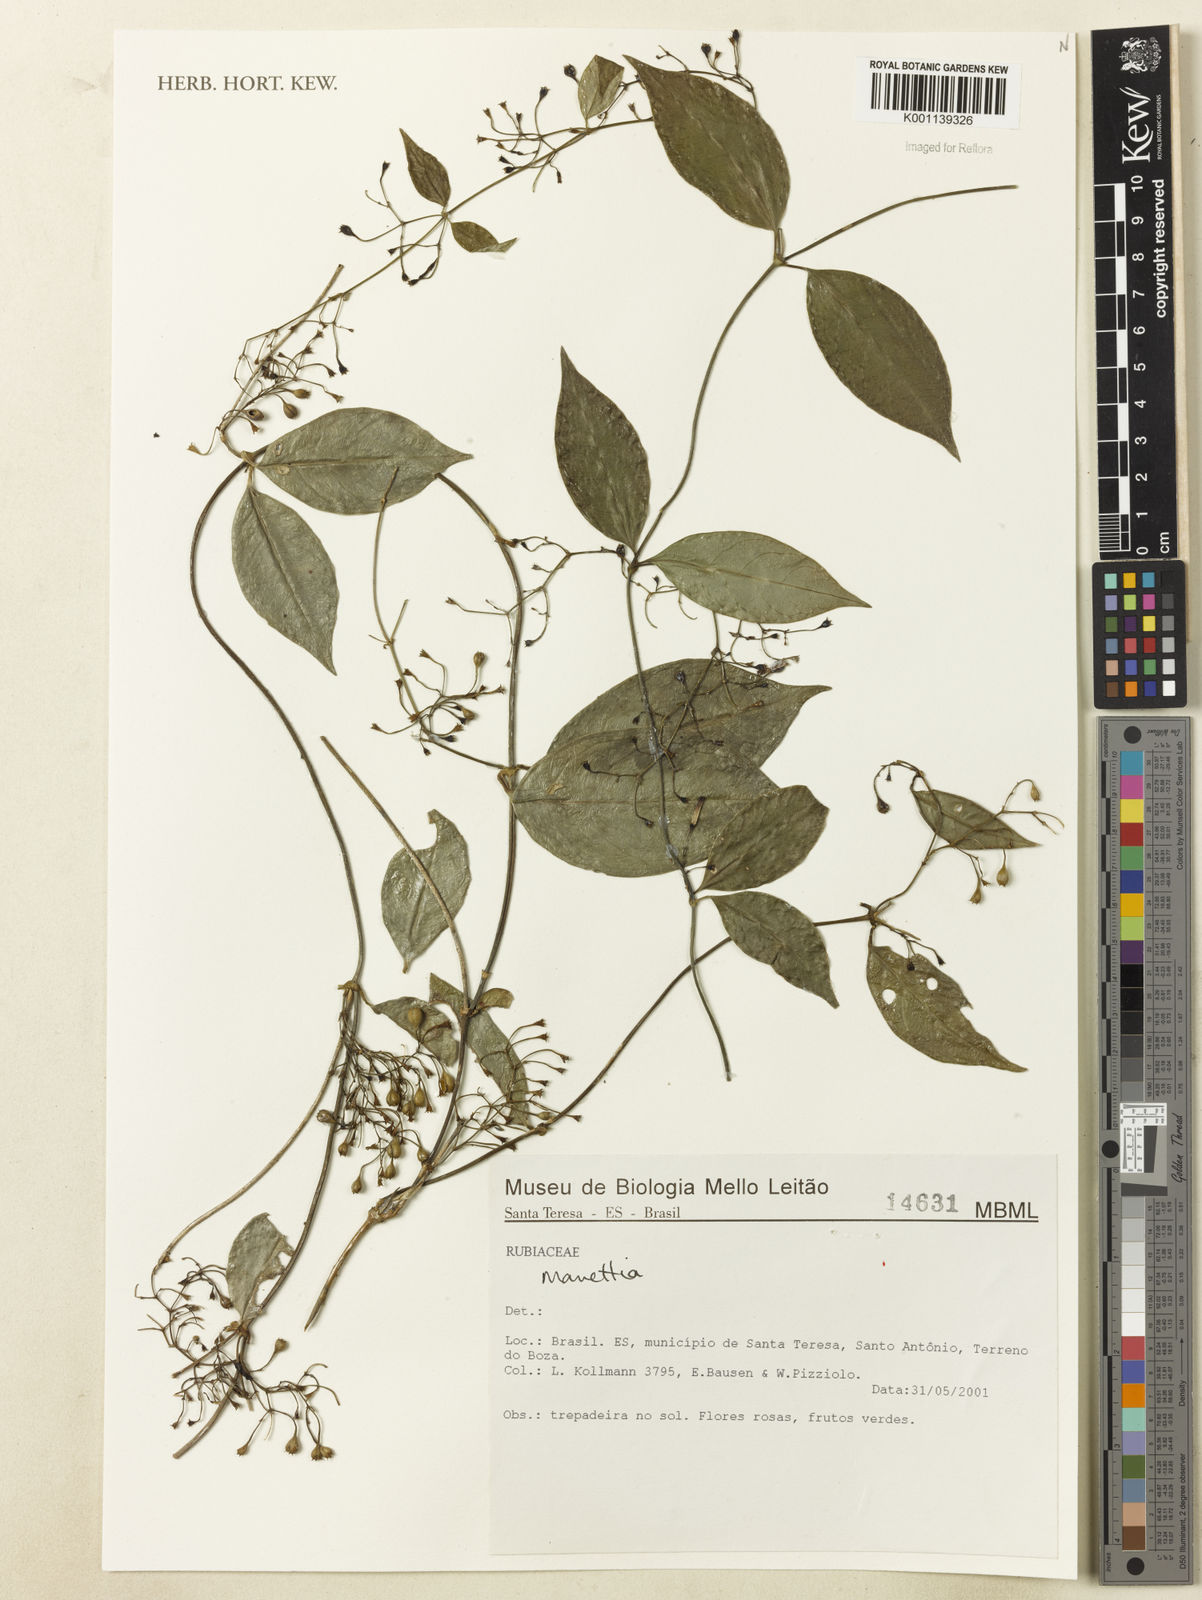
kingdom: Plantae
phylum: Tracheophyta
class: Magnoliopsida
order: Gentianales
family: Rubiaceae
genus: Manettia
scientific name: Manettia
